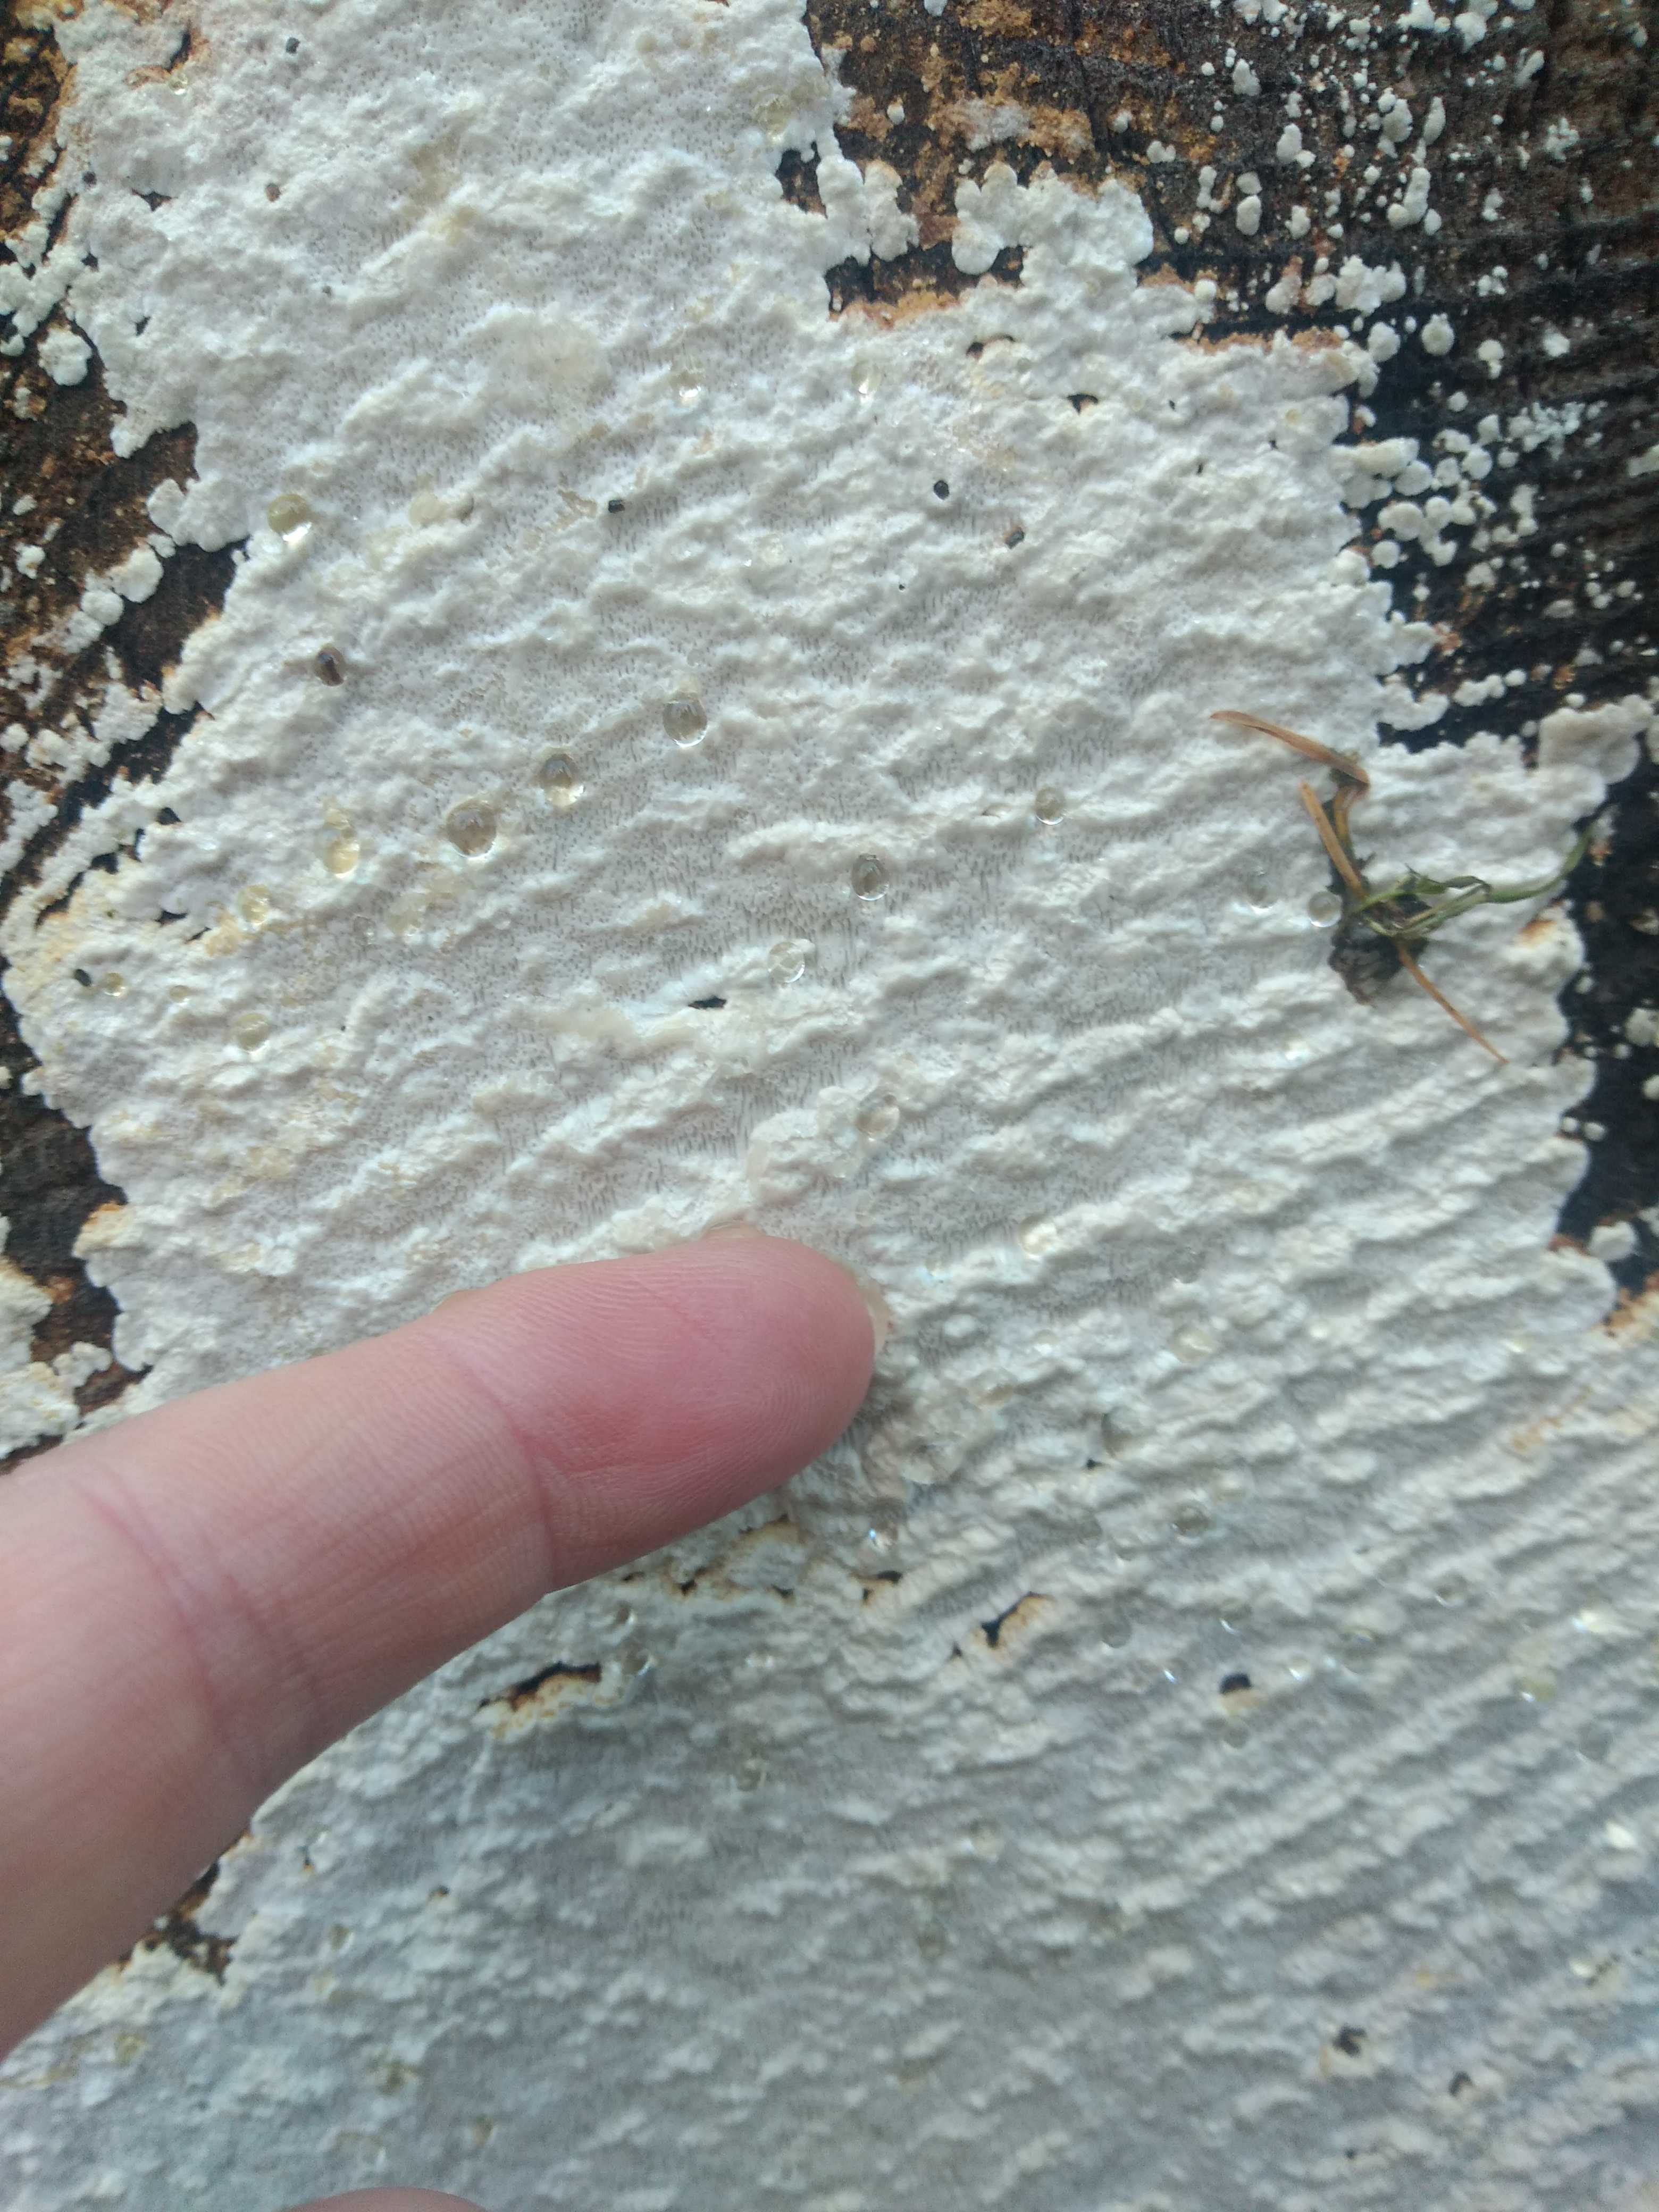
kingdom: Fungi
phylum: Basidiomycota
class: Agaricomycetes
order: Polyporales
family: Fomitopsidaceae
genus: Neoantrodia
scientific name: Neoantrodia serialis
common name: række-sejporesvamp
